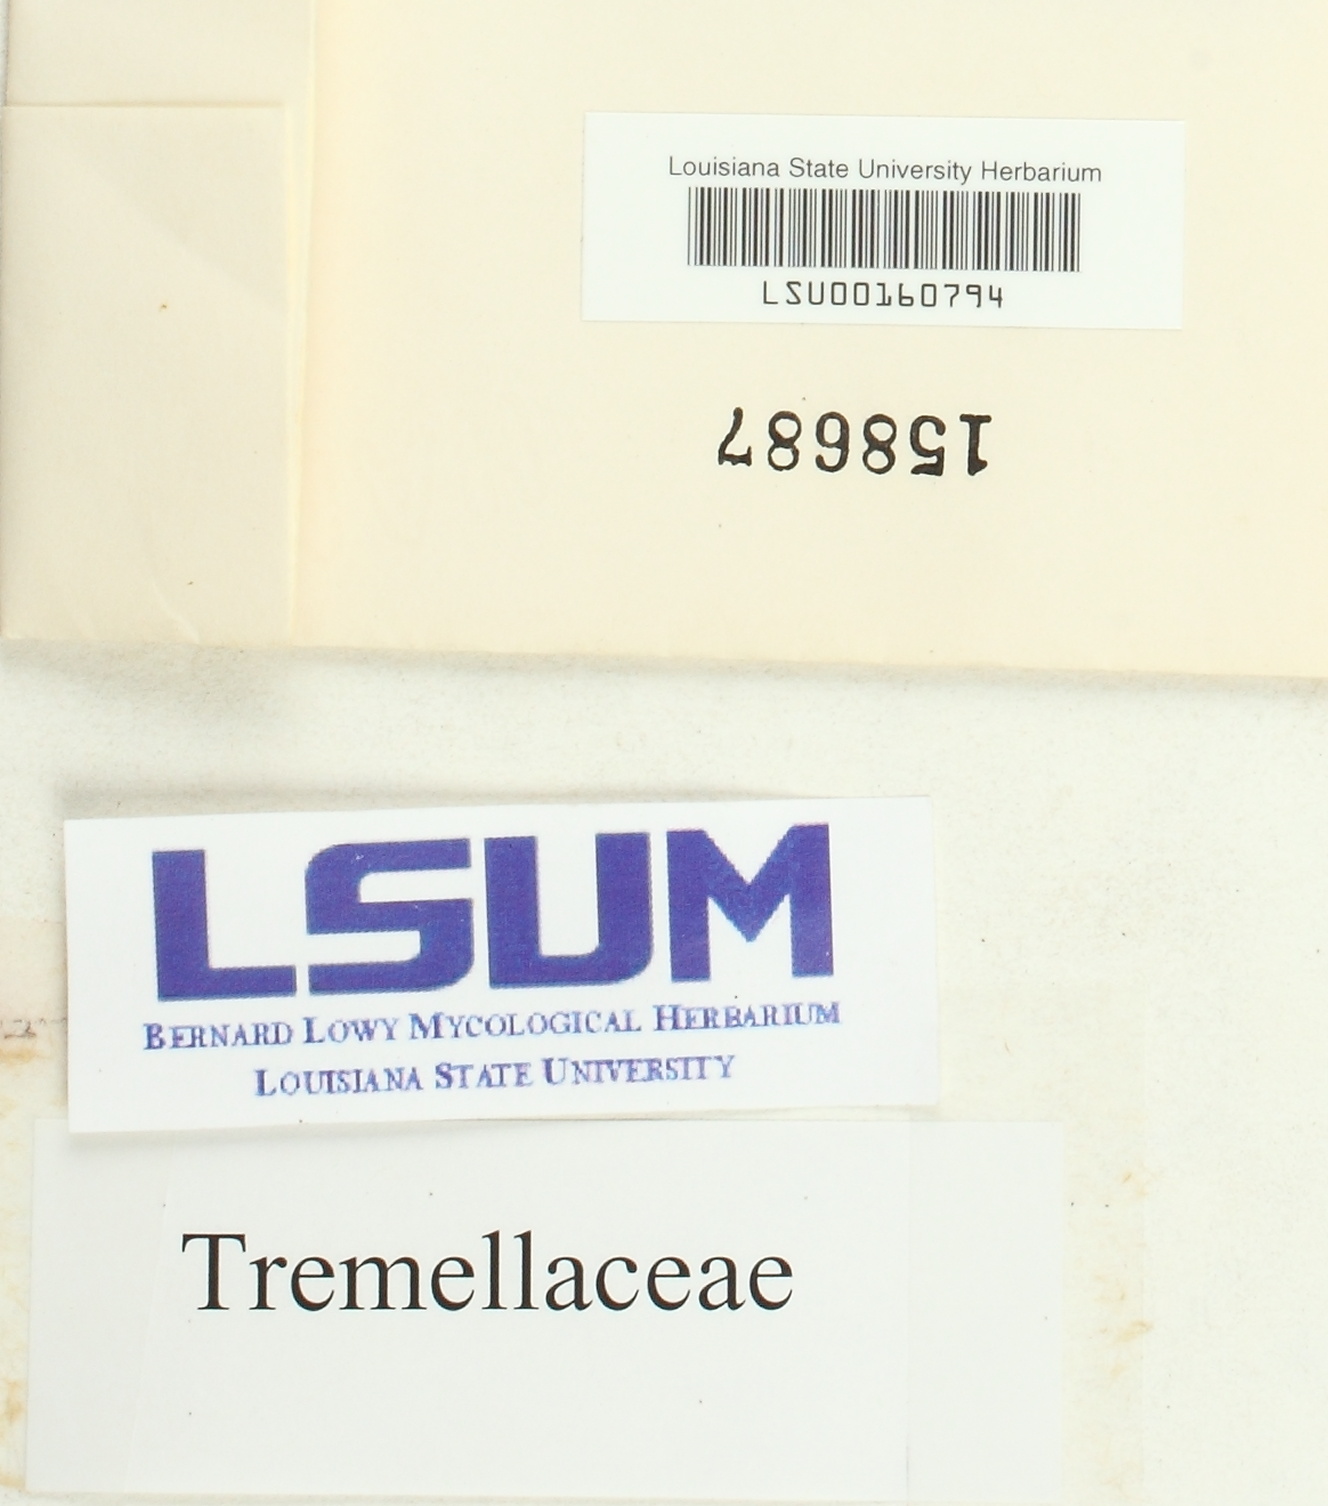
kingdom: Fungi
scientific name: Fungi
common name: Fungi
